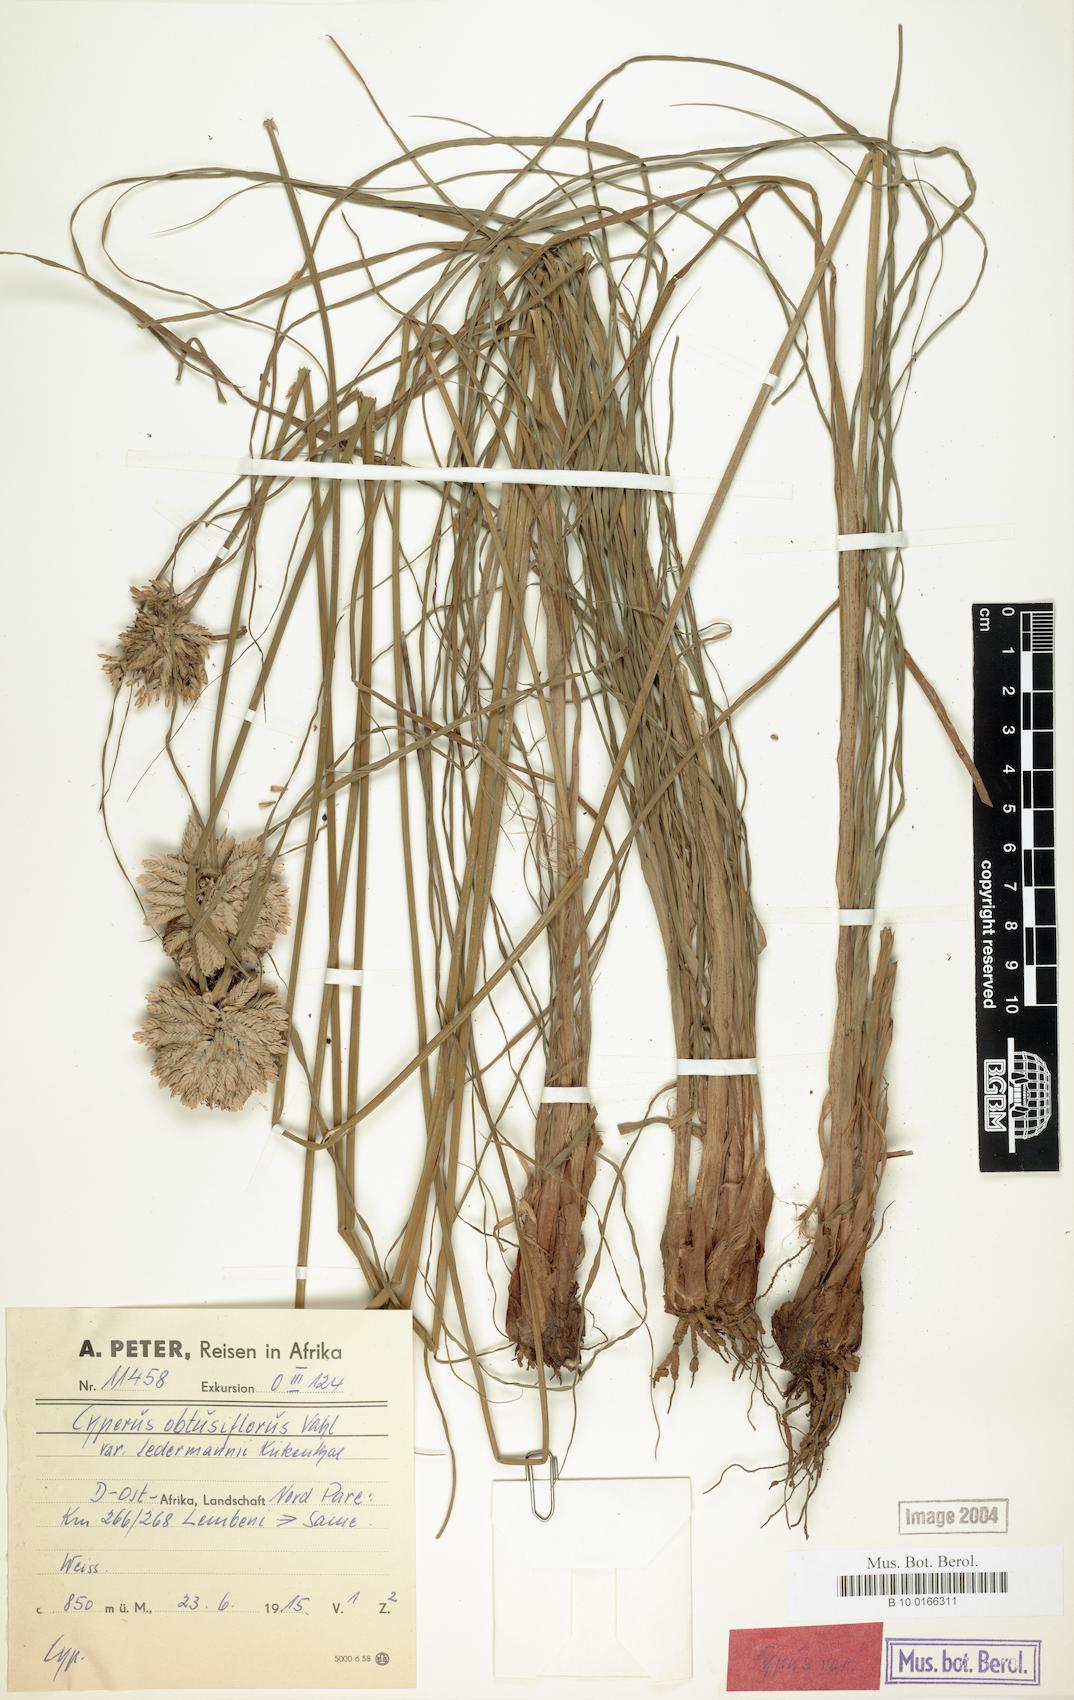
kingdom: Plantae
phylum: Tracheophyta
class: Liliopsida
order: Poales
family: Cyperaceae
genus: Cyperus
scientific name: Cyperus niveus
